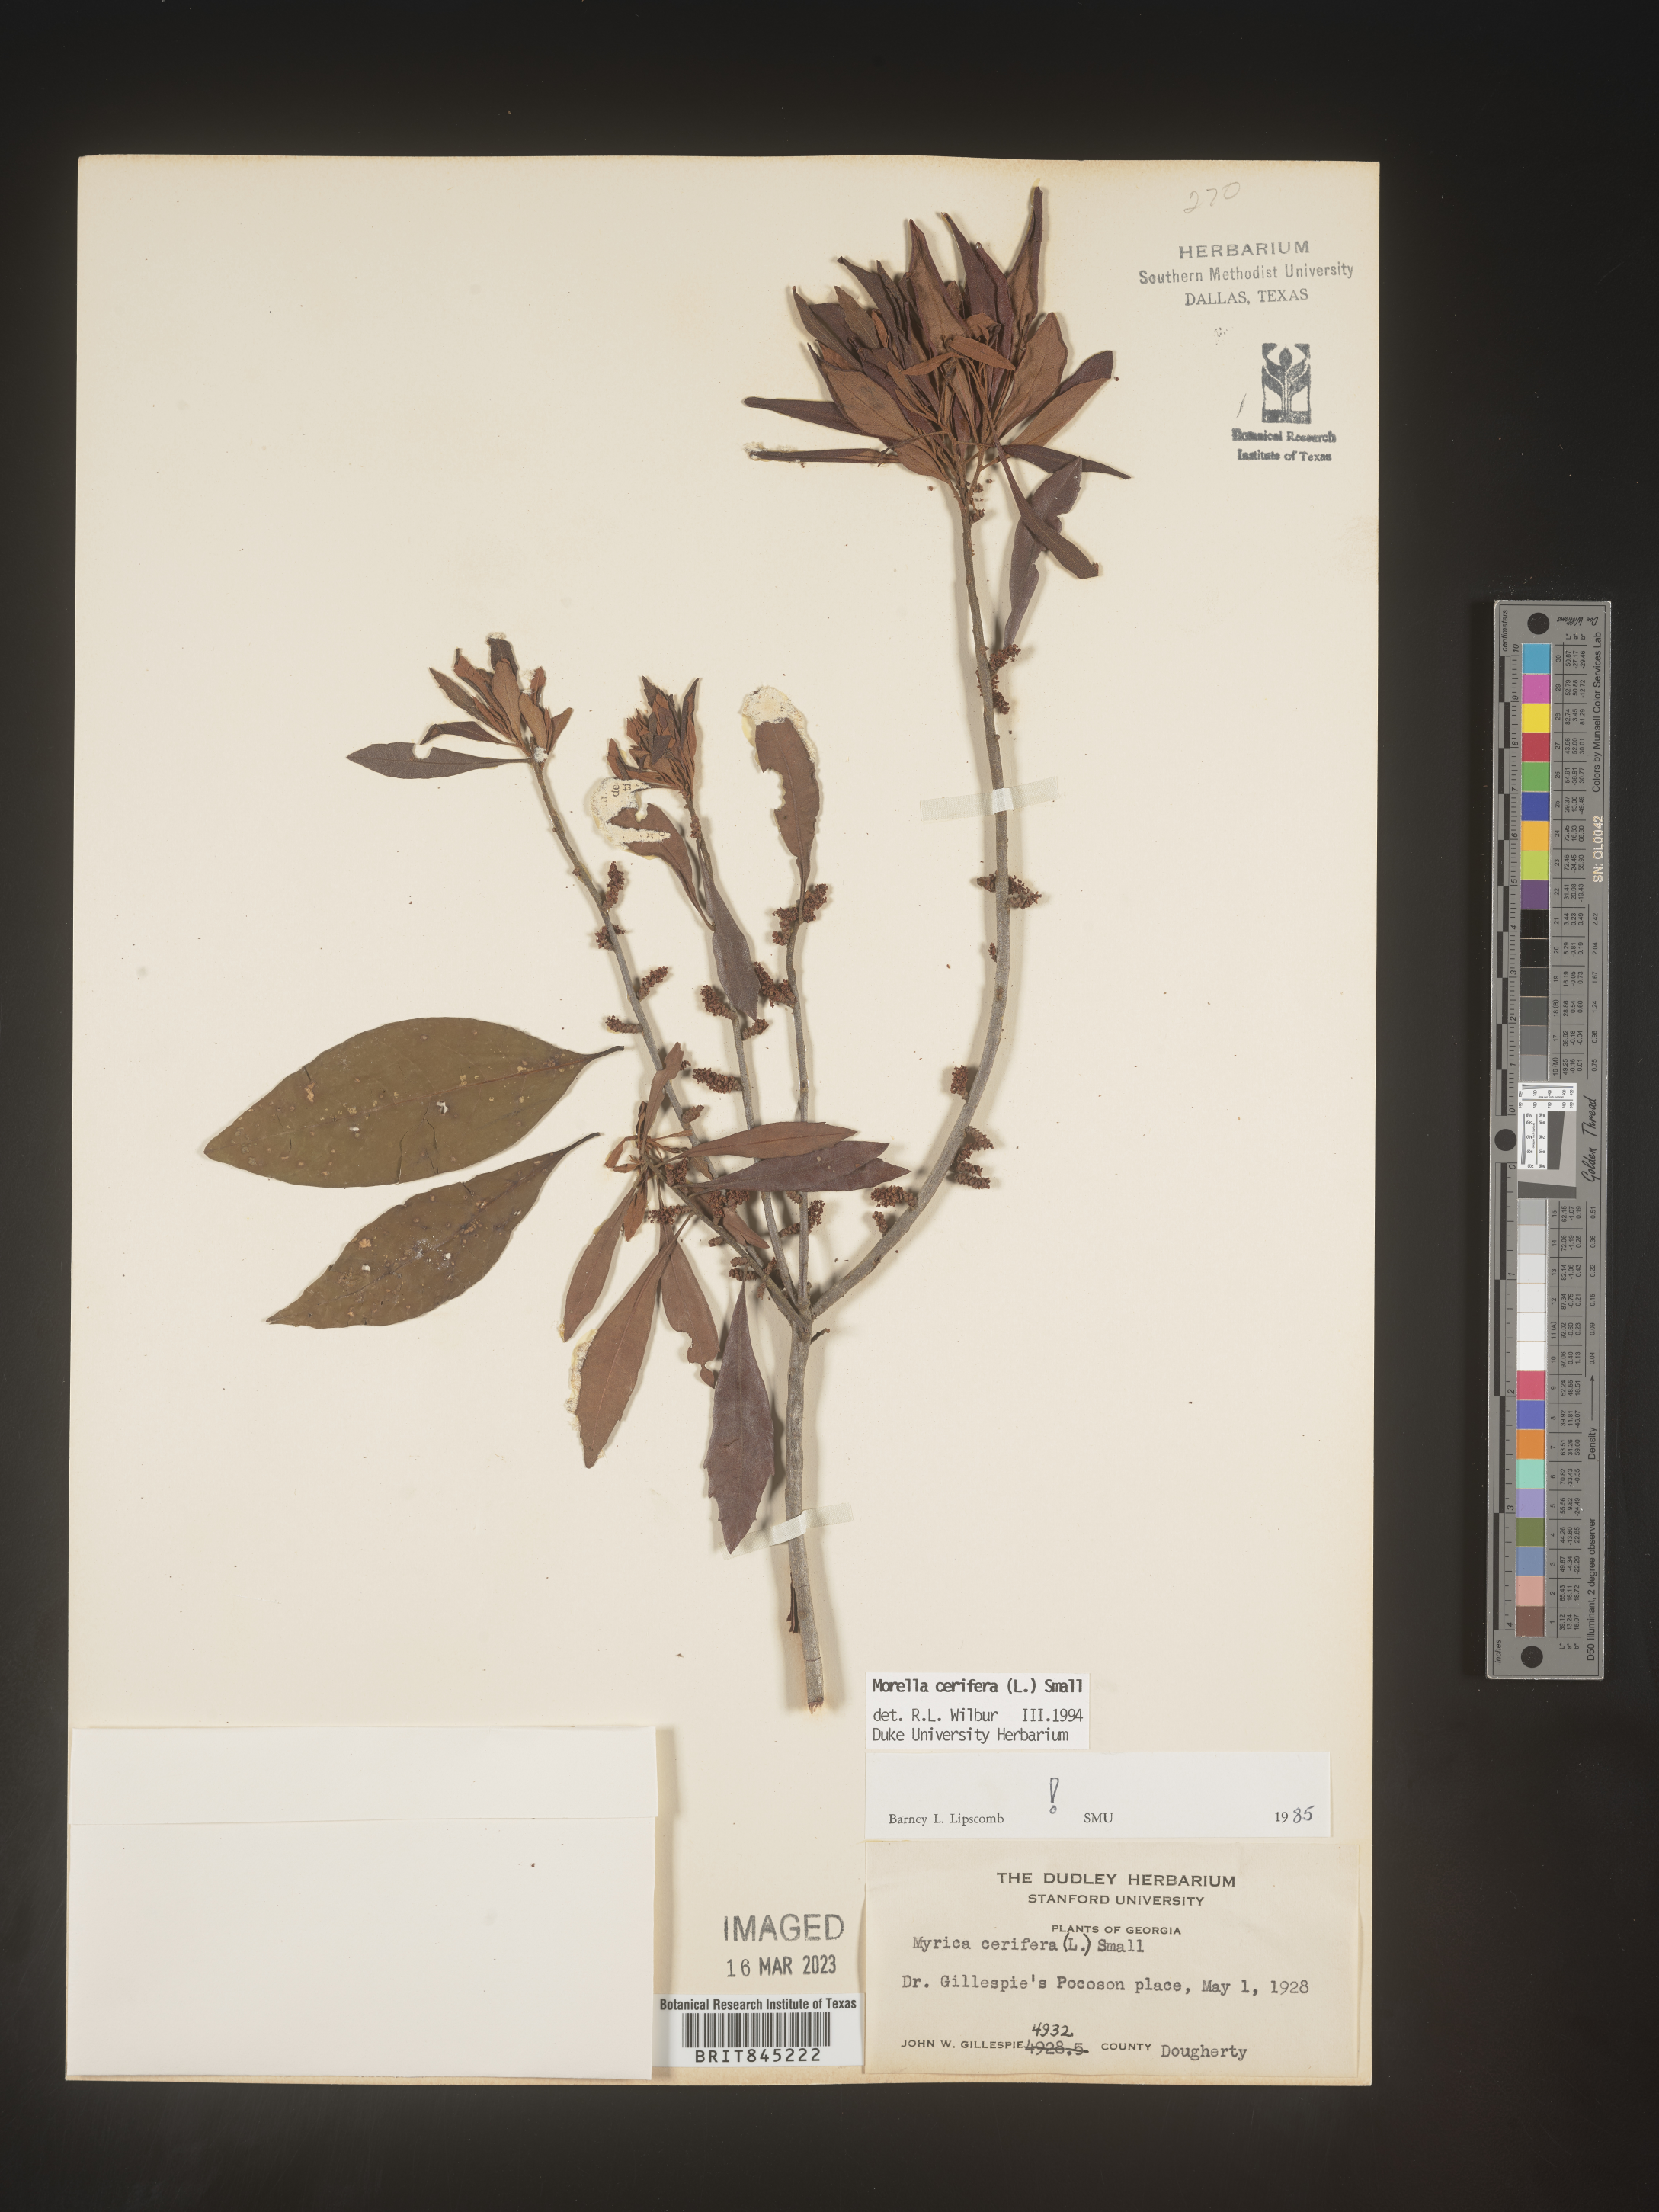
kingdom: Plantae
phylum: Tracheophyta
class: Magnoliopsida
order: Fagales
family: Myricaceae
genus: Morella
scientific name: Morella cerifera
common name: Wax myrtle
